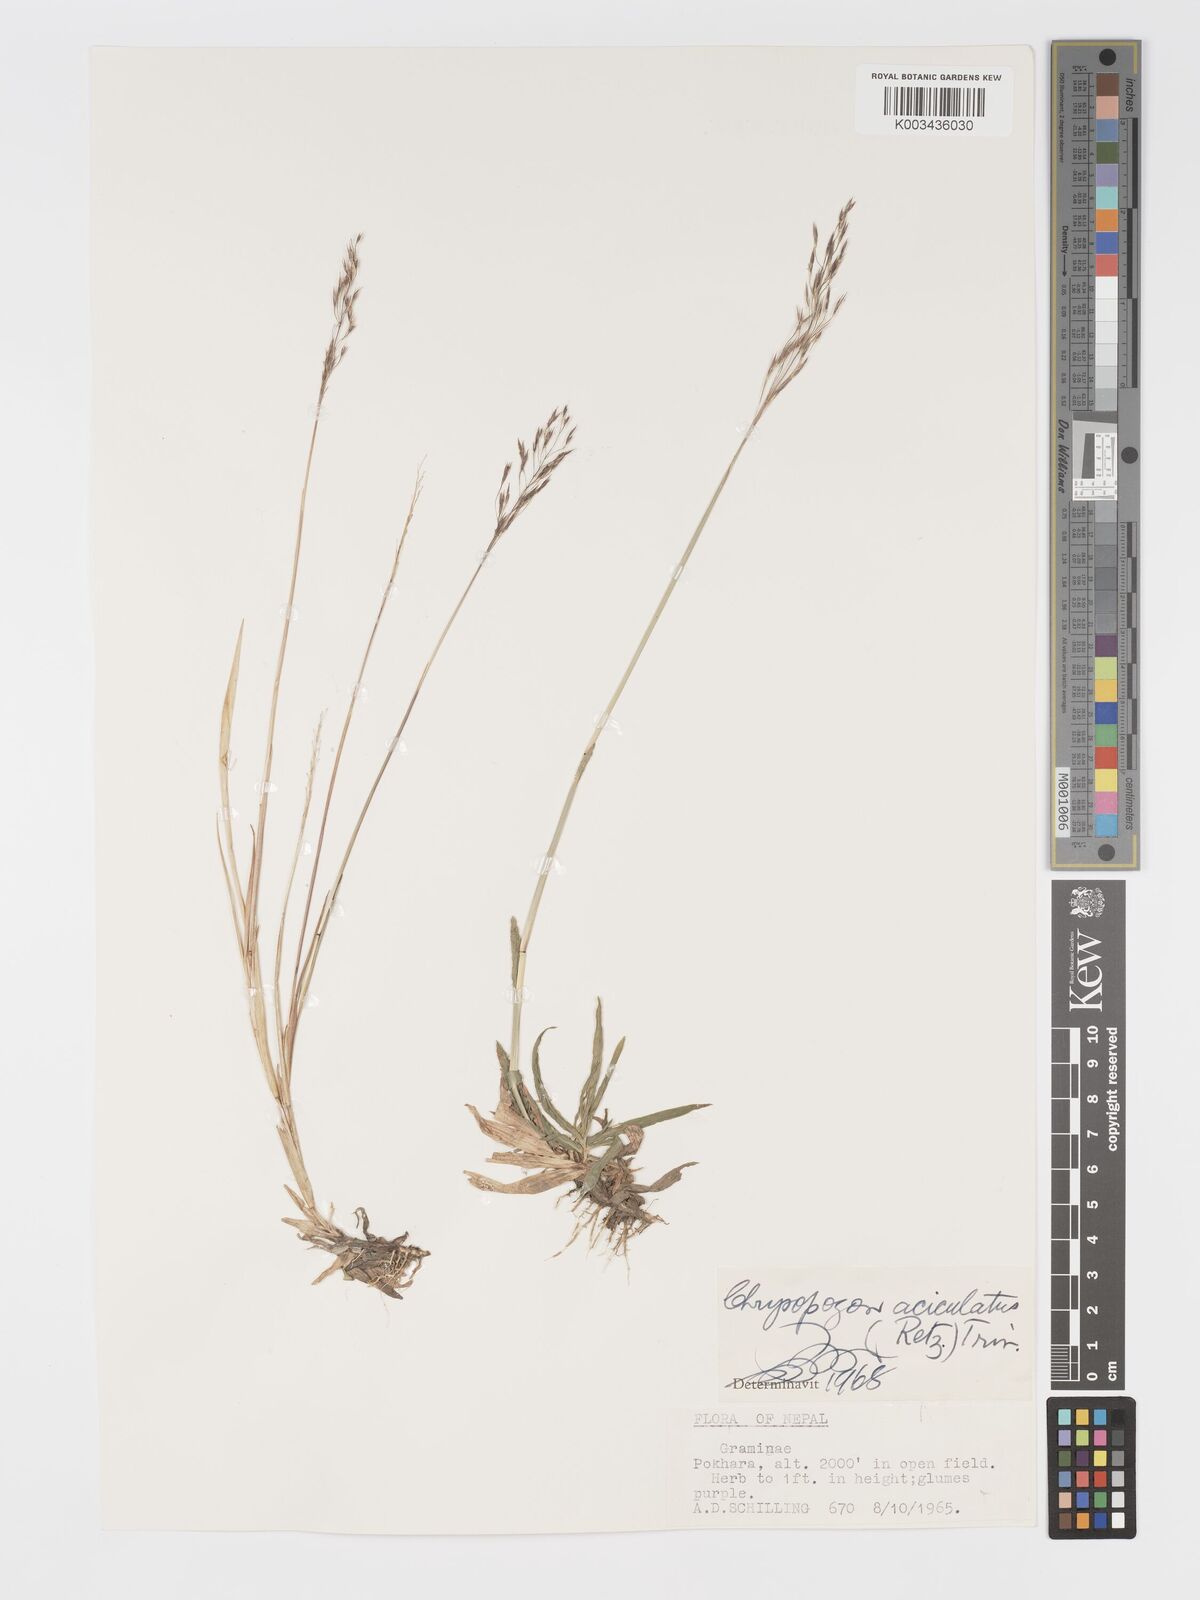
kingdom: Plantae
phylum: Tracheophyta
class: Liliopsida
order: Poales
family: Poaceae
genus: Chrysopogon
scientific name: Chrysopogon aciculatus
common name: Pilipiliula
